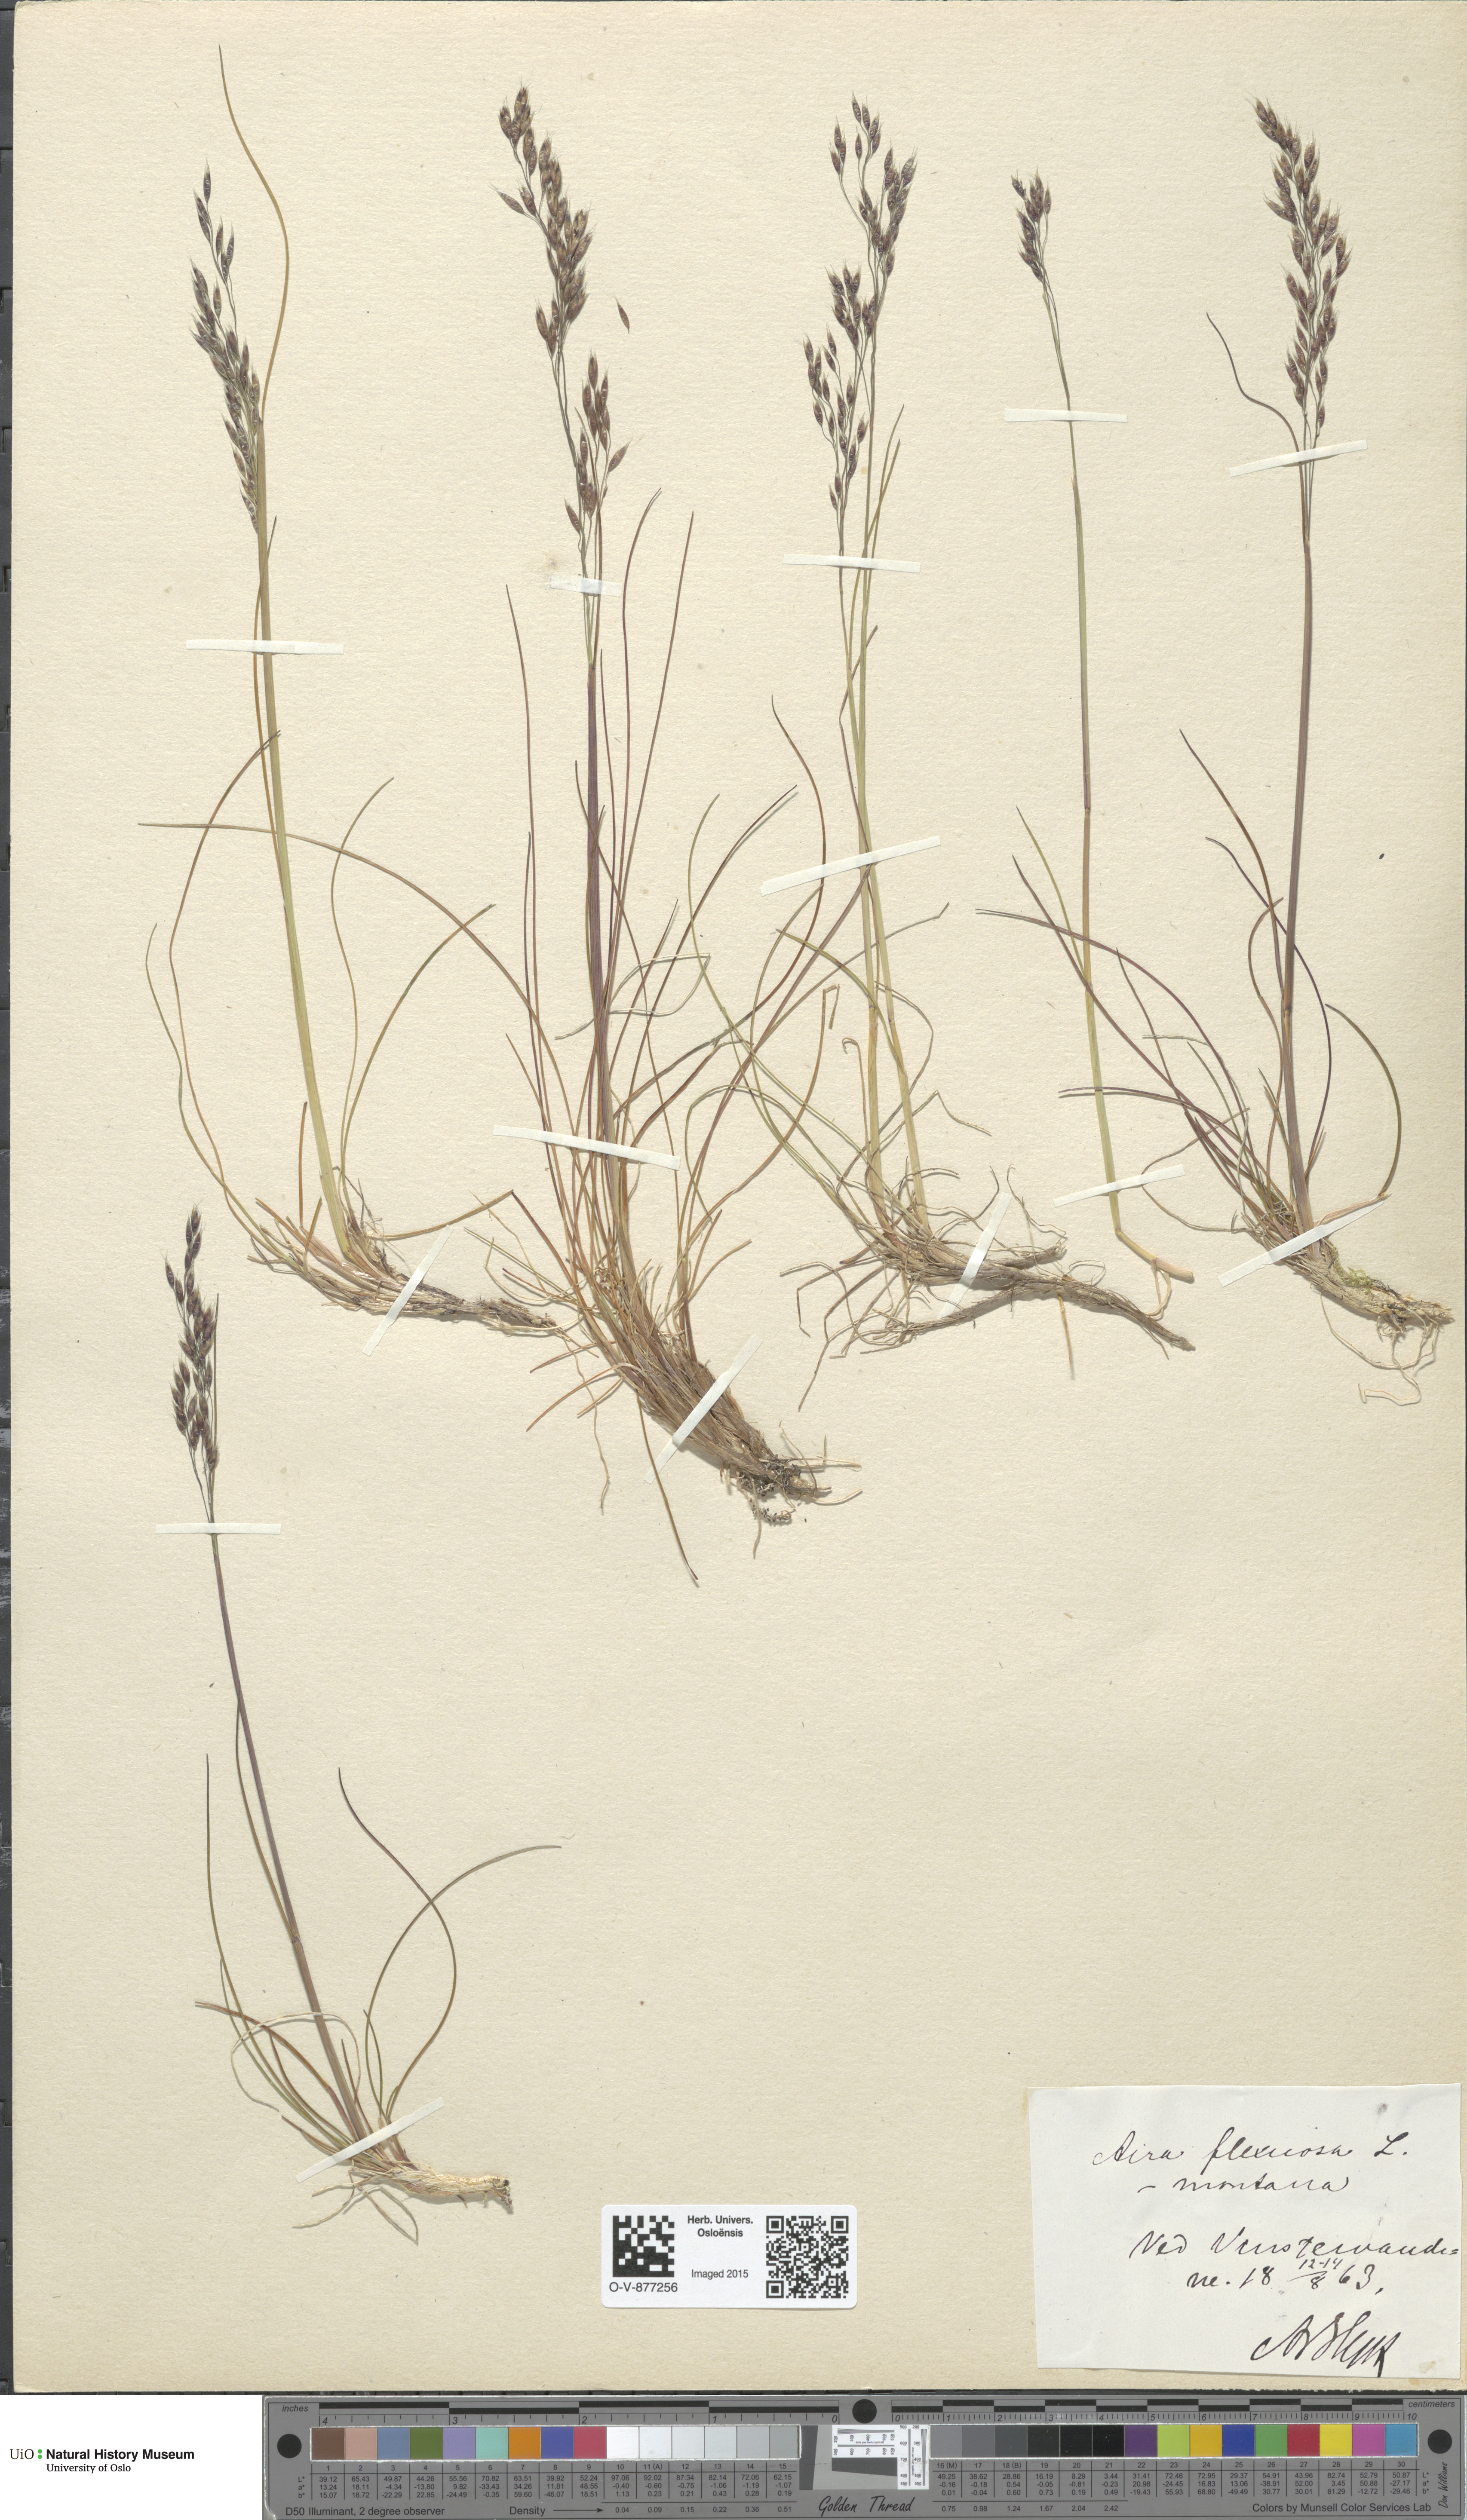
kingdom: Plantae
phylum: Tracheophyta
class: Liliopsida
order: Poales
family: Poaceae
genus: Avenella
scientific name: Avenella flexuosa
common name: Wavy hairgrass
